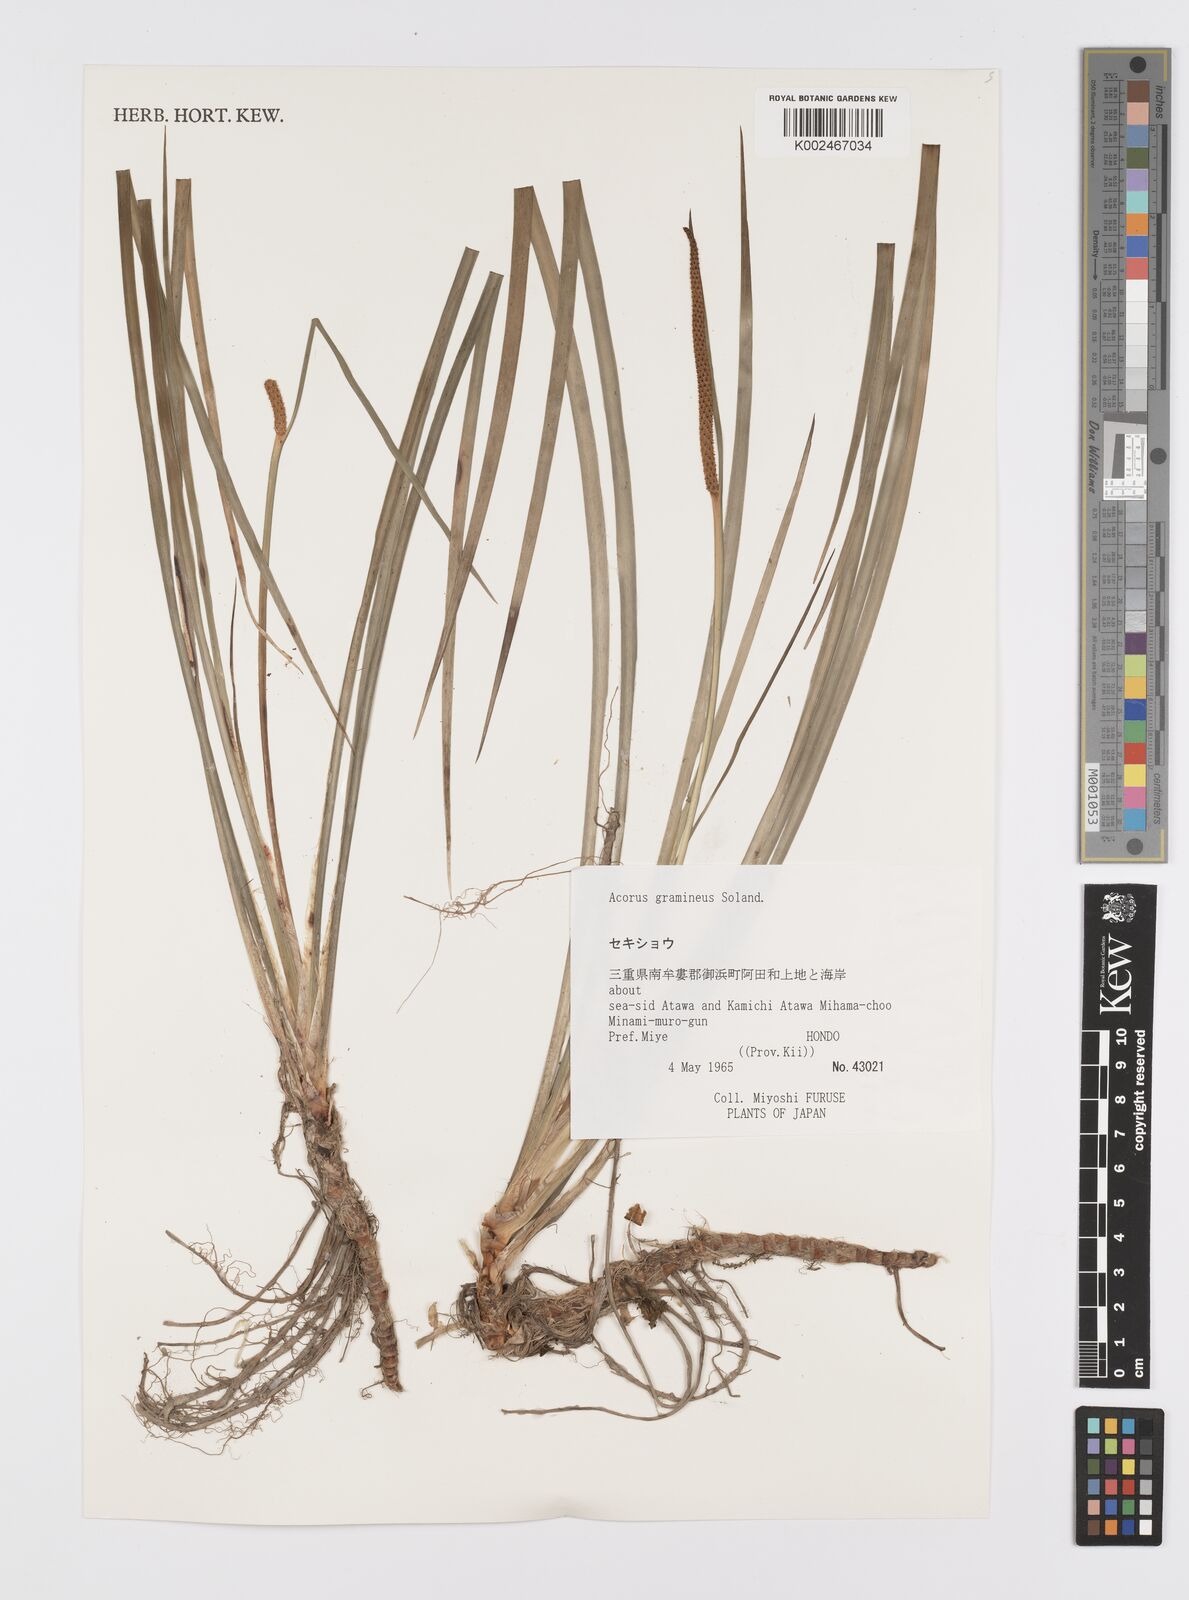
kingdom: Plantae
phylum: Tracheophyta
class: Liliopsida
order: Acorales
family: Acoraceae
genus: Acorus
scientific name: Acorus gramineus
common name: Slender sweet-flag
